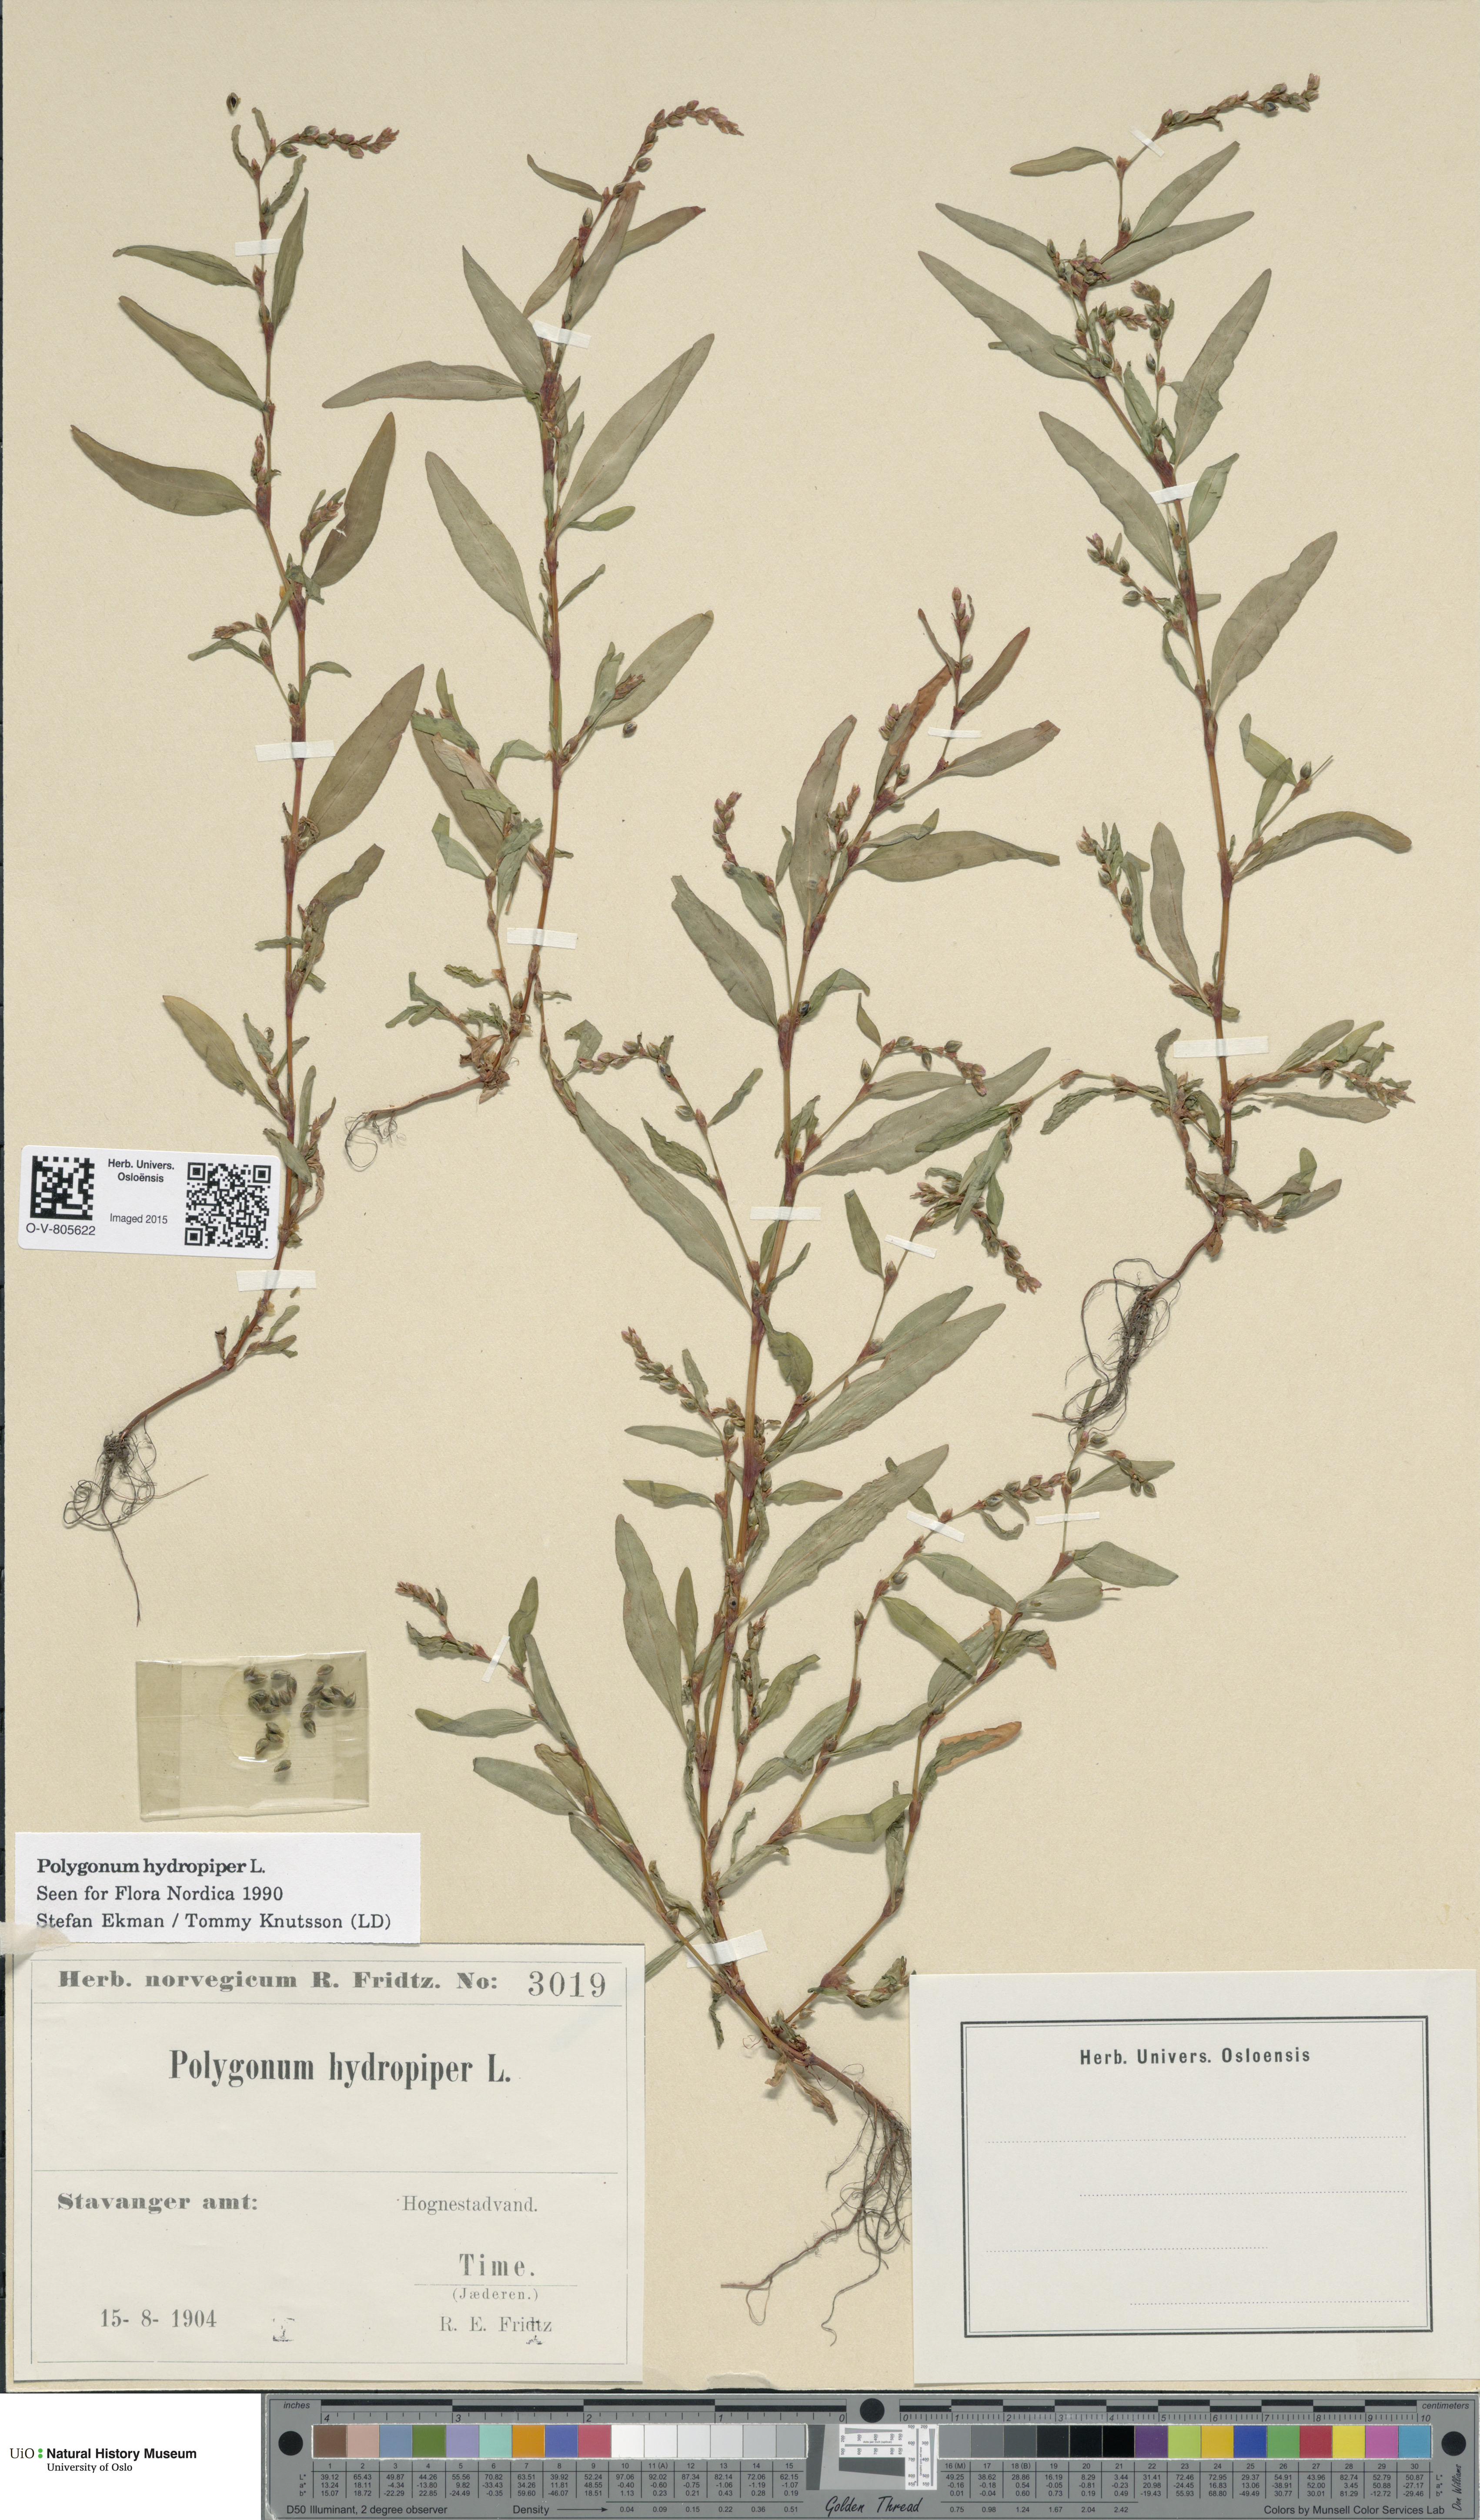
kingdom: Plantae
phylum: Tracheophyta
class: Magnoliopsida
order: Caryophyllales
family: Polygonaceae
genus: Persicaria
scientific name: Persicaria hydropiper
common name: Water-pepper
